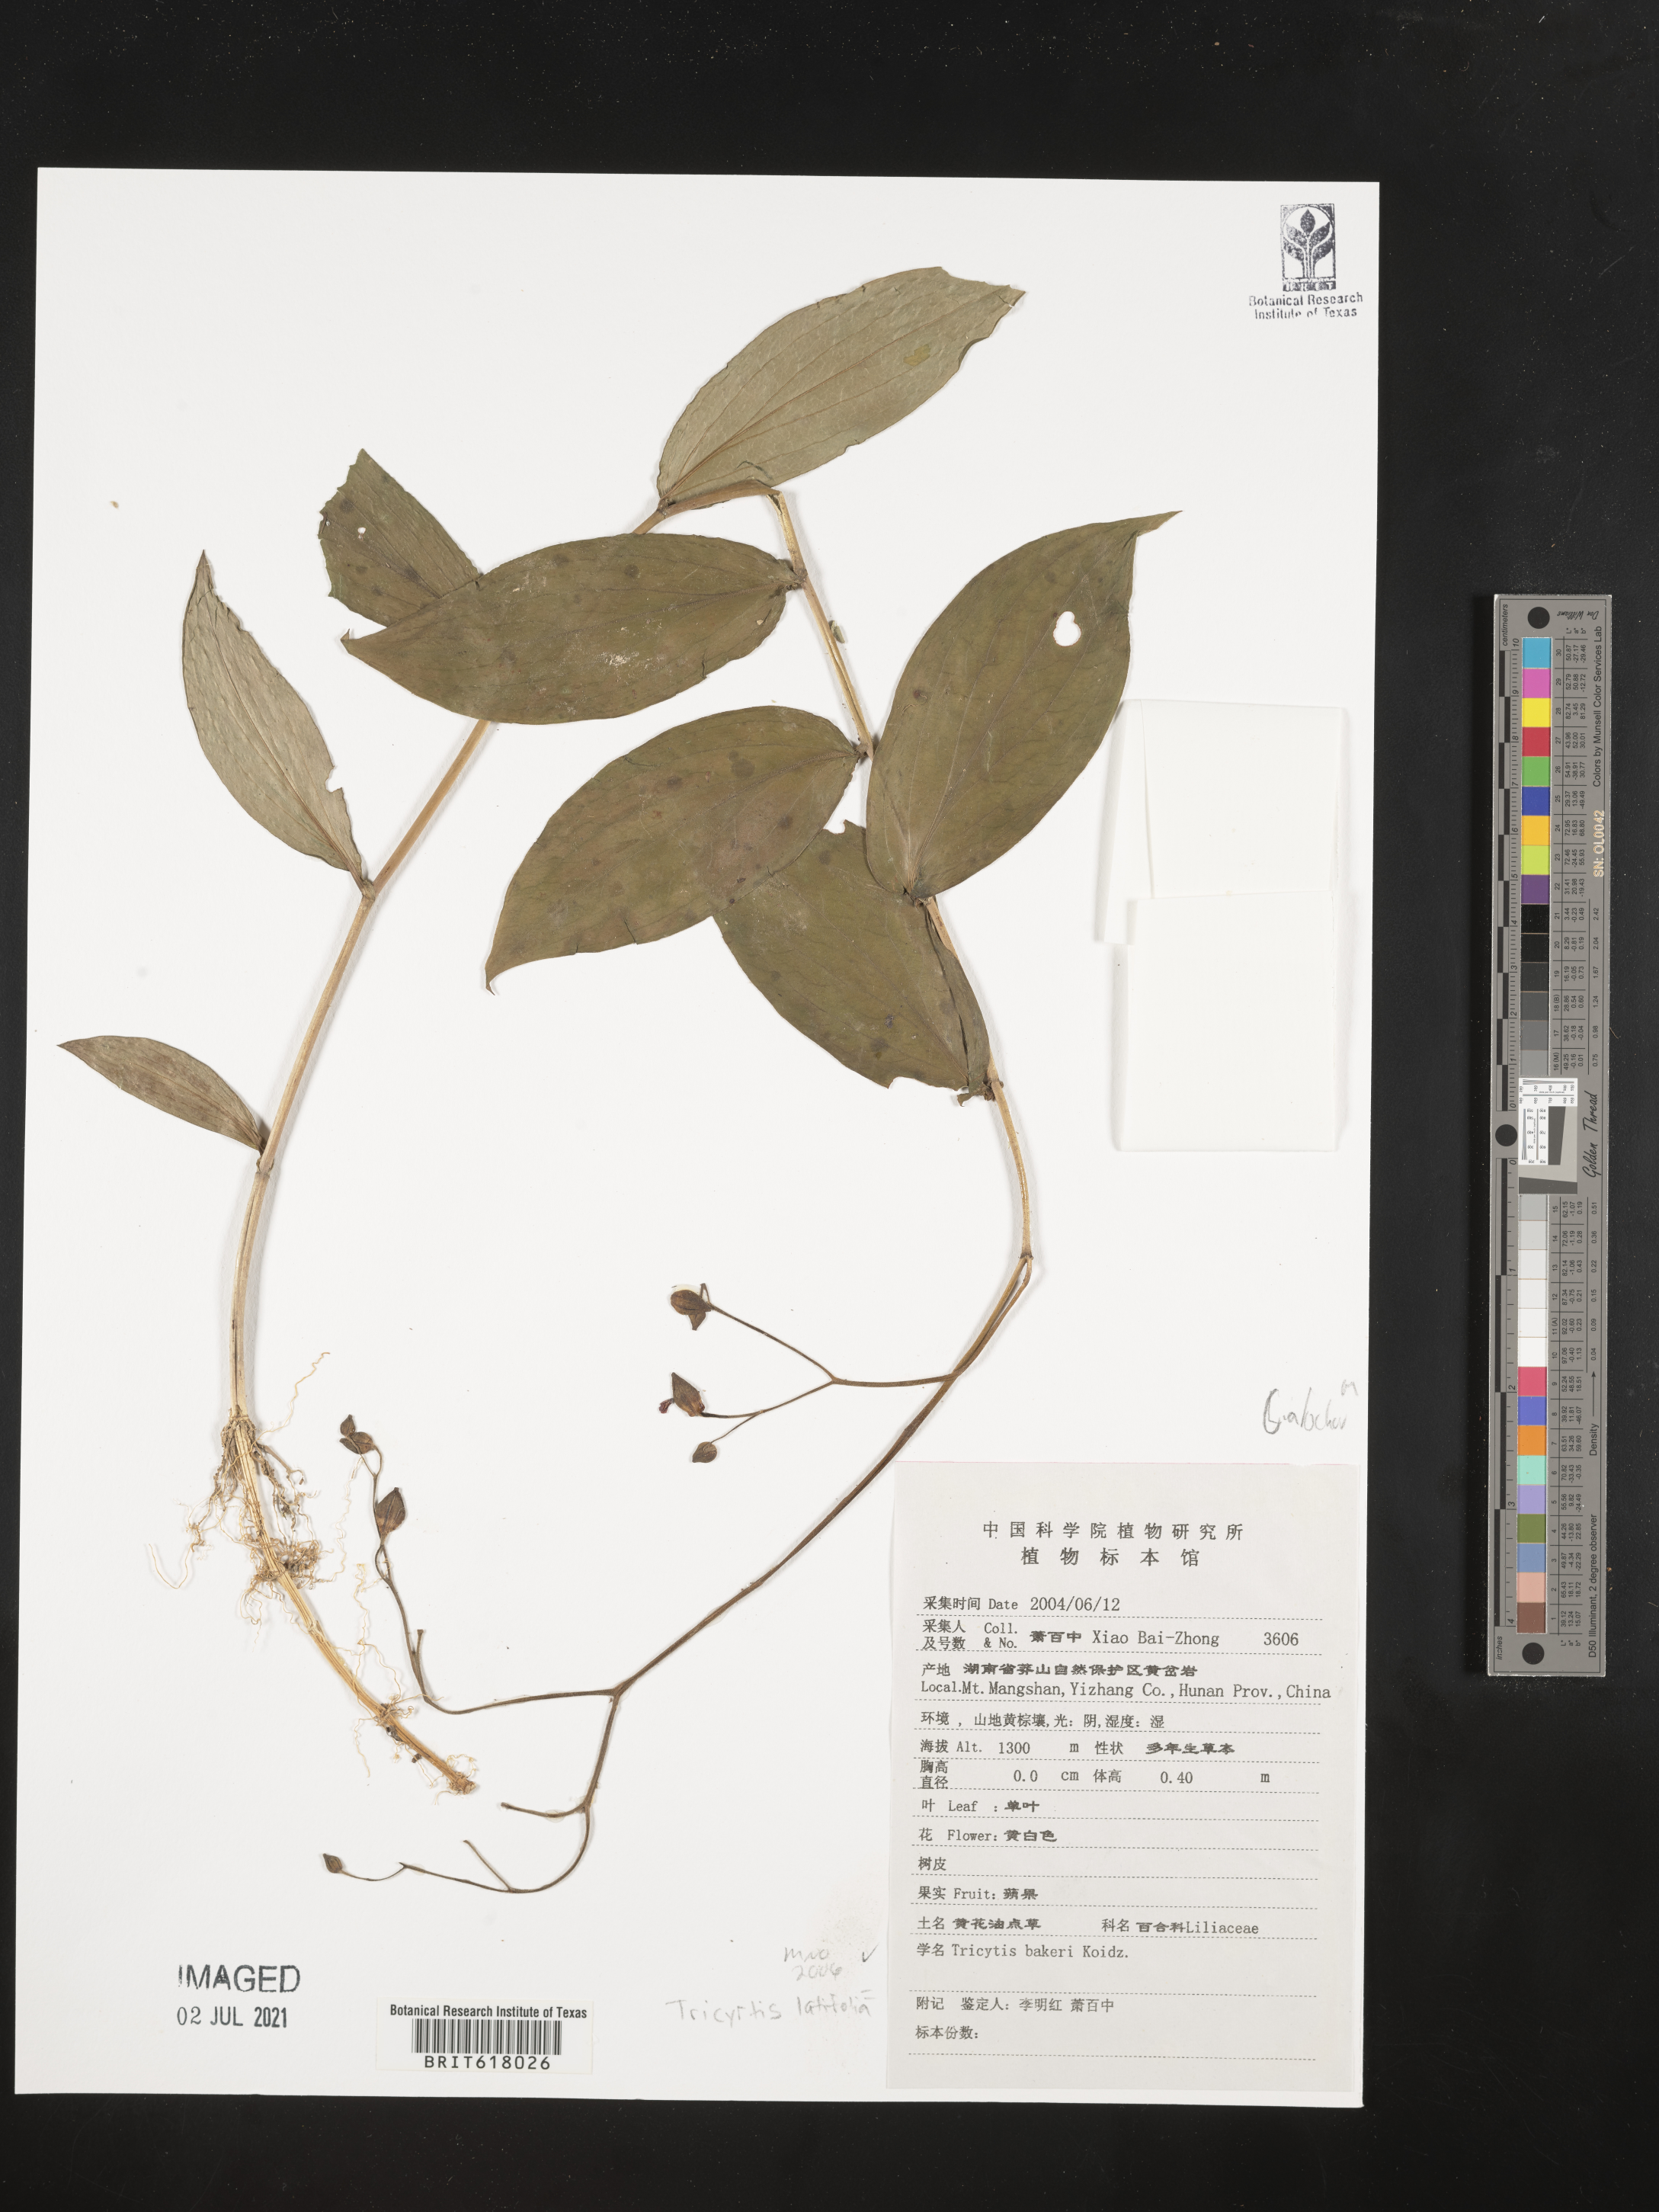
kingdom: Plantae
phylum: Tracheophyta
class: Liliopsida
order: Liliales
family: Liliaceae
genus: Tricyrtis
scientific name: Tricyrtis latifolia
